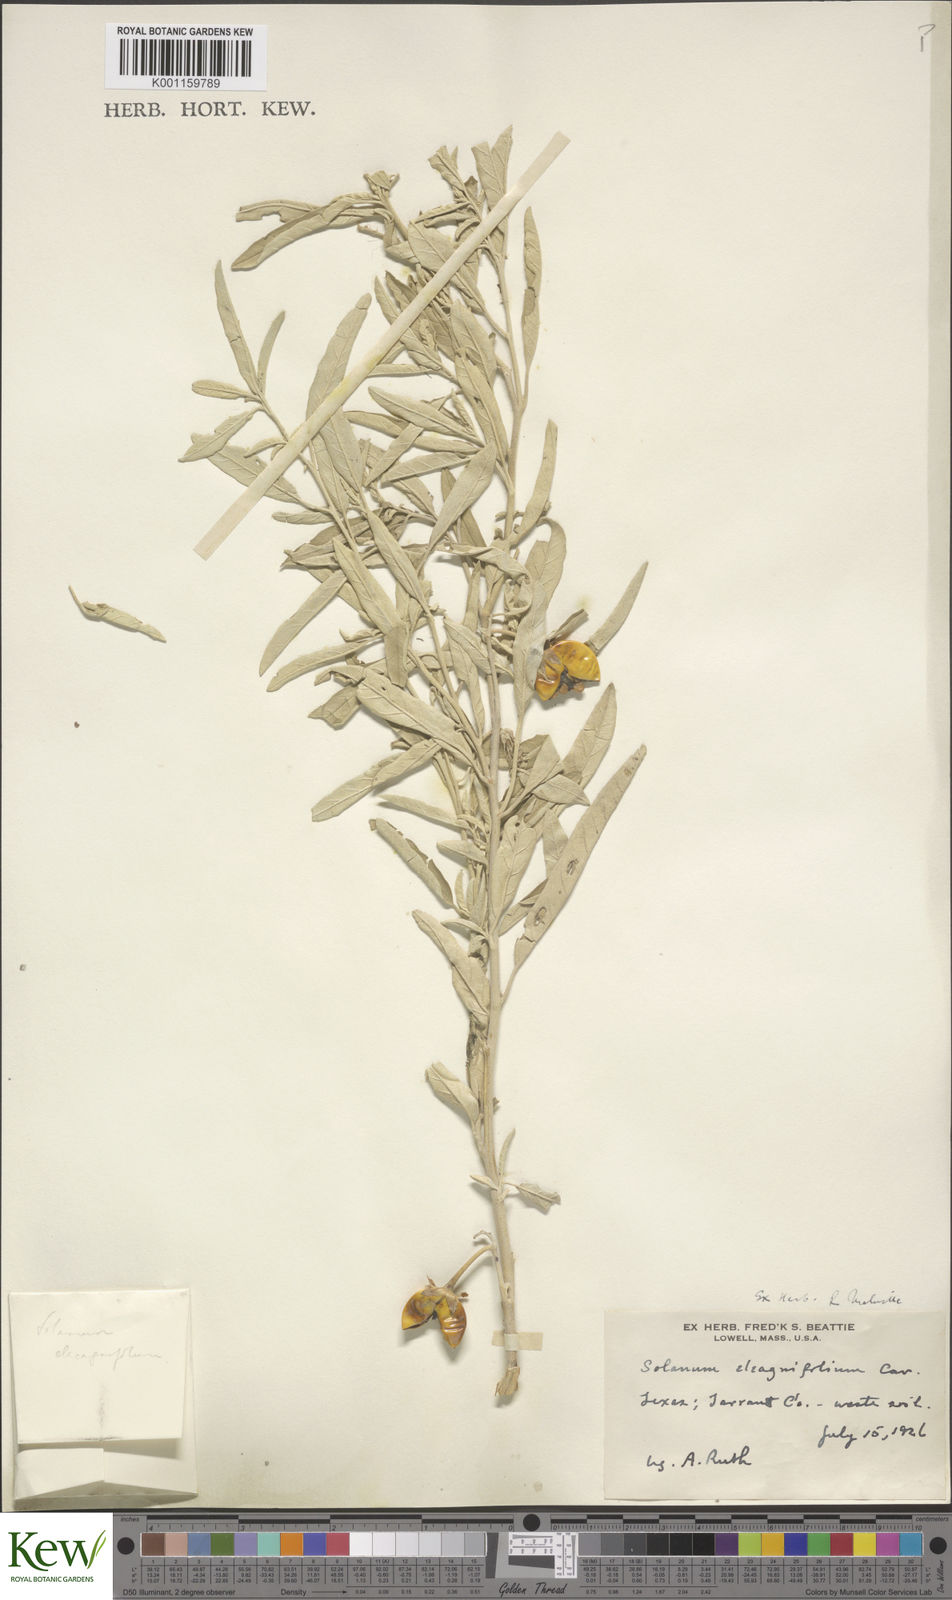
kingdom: Plantae
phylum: Tracheophyta
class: Magnoliopsida
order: Solanales
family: Solanaceae
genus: Solanum
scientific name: Solanum
